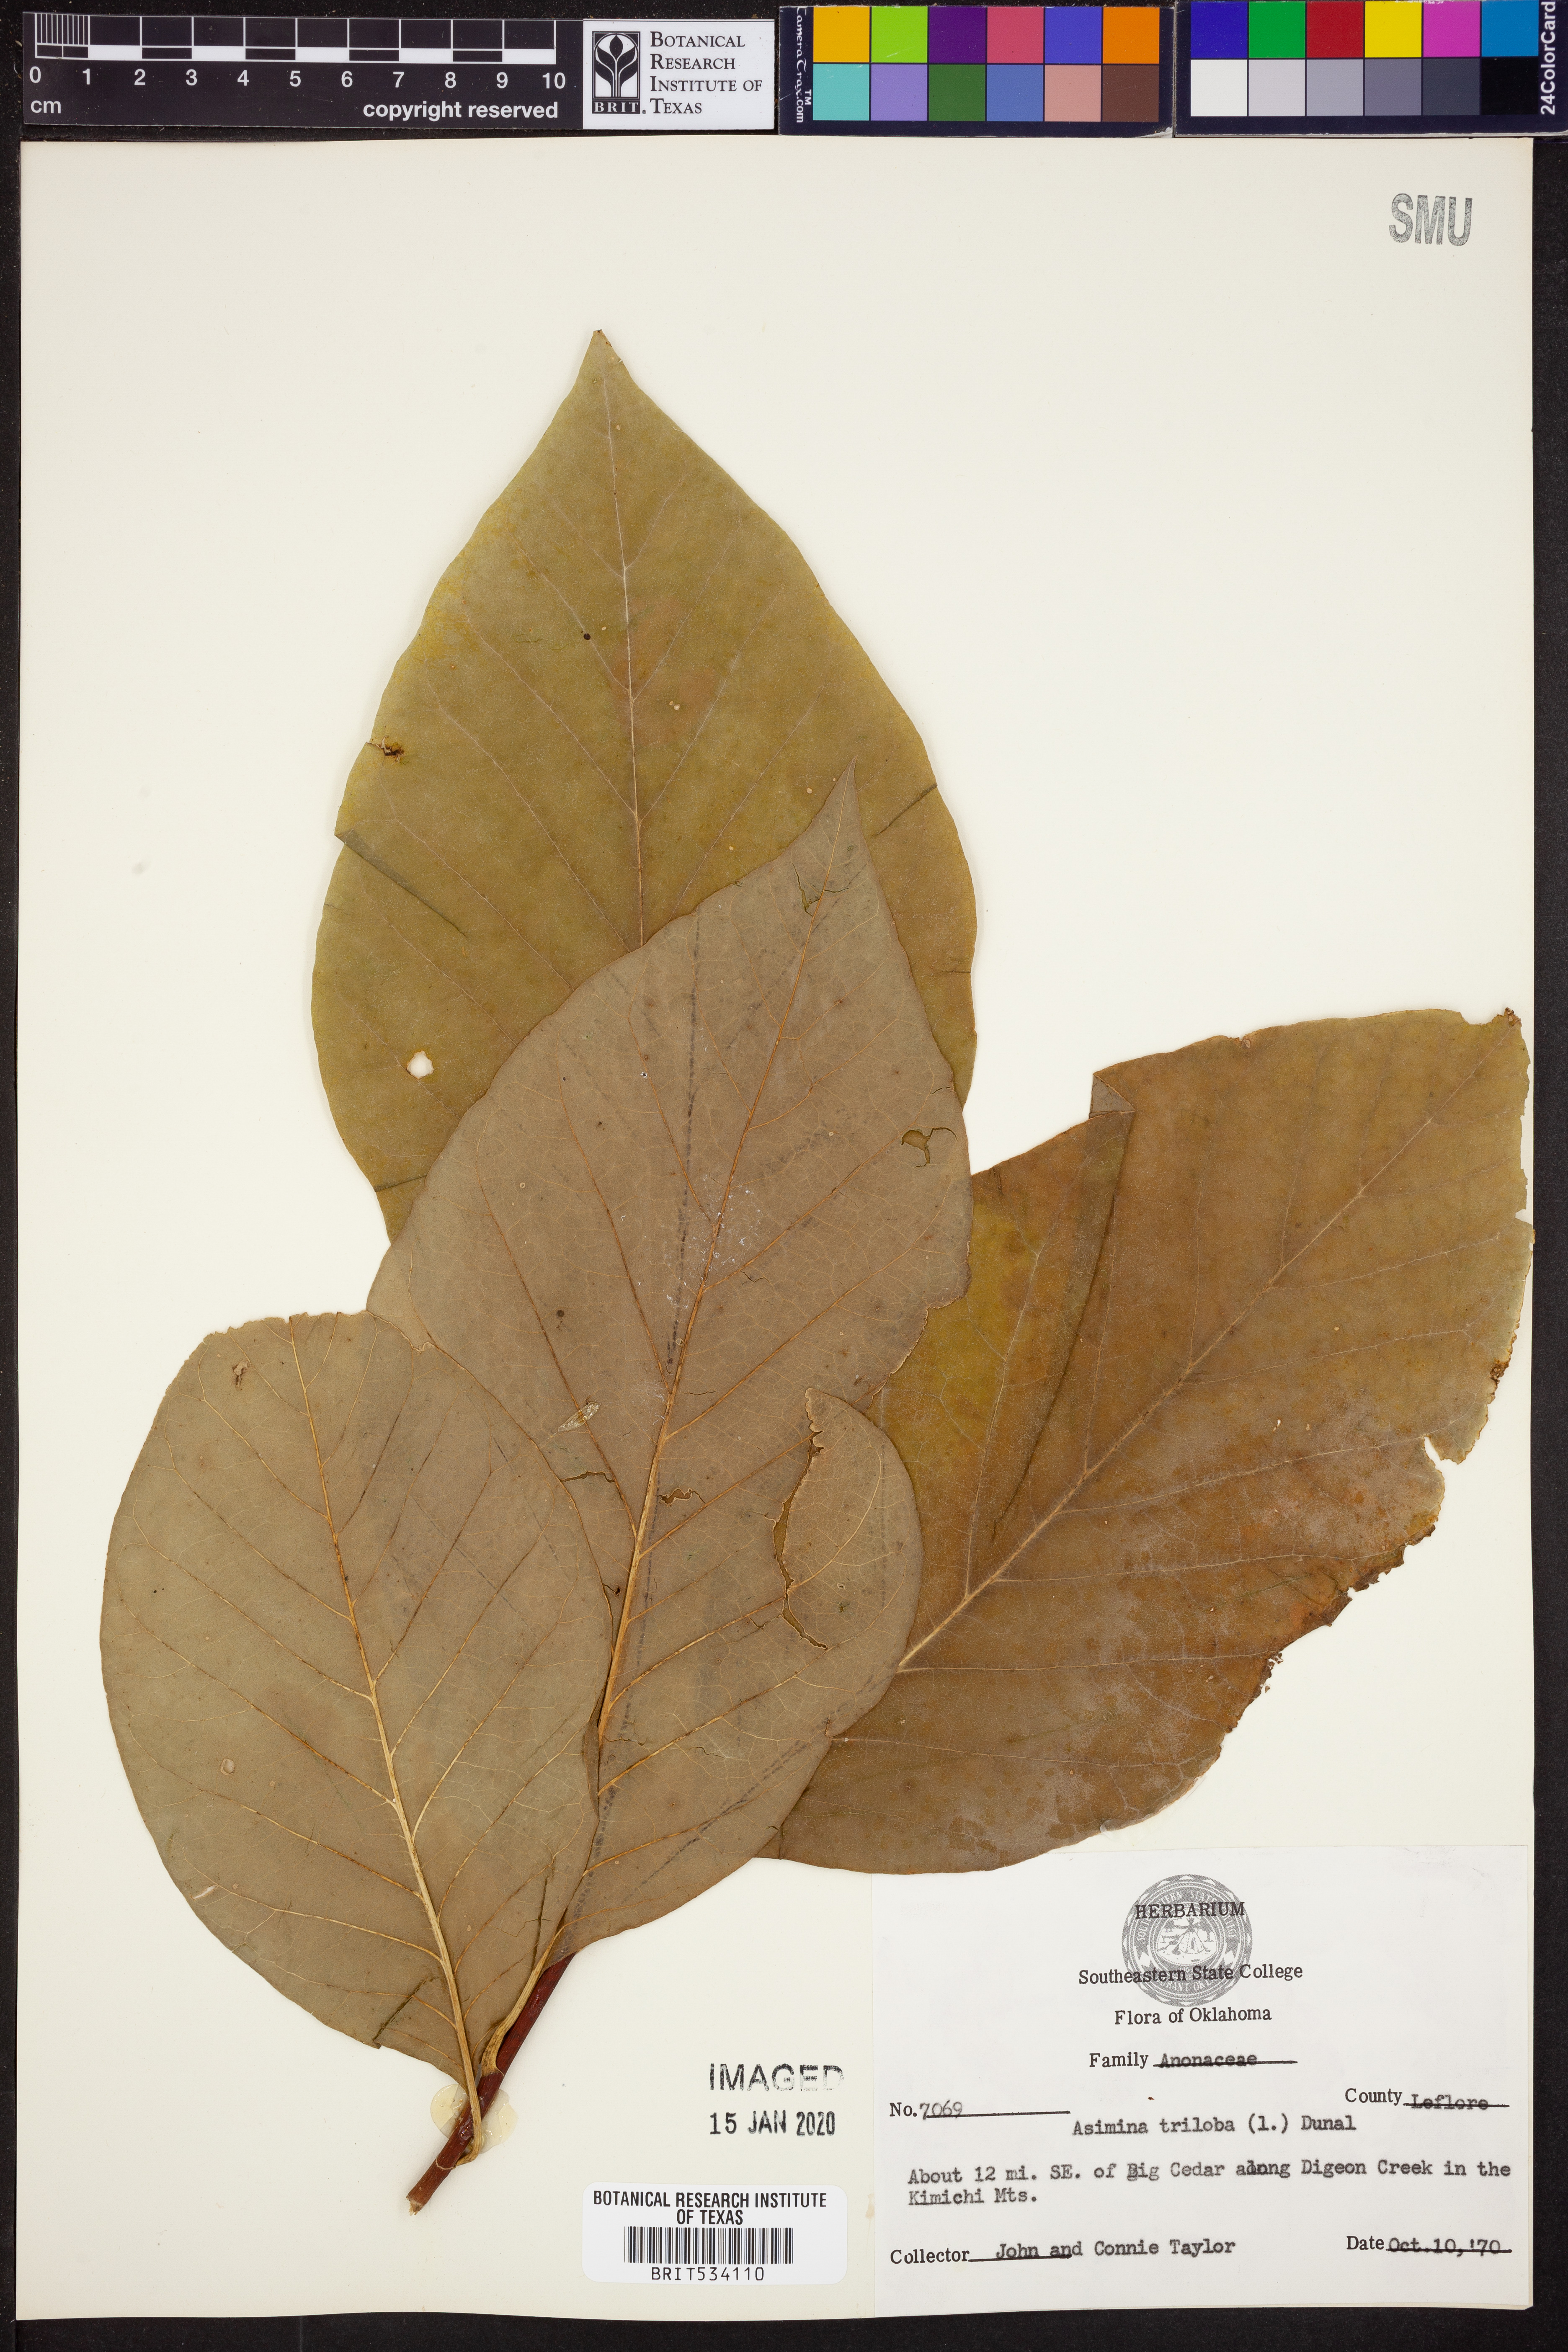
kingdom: Plantae
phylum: Tracheophyta
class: Magnoliopsida
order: Magnoliales
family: Annonaceae
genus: Asimina
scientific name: Asimina triloba
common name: Dog-banana
